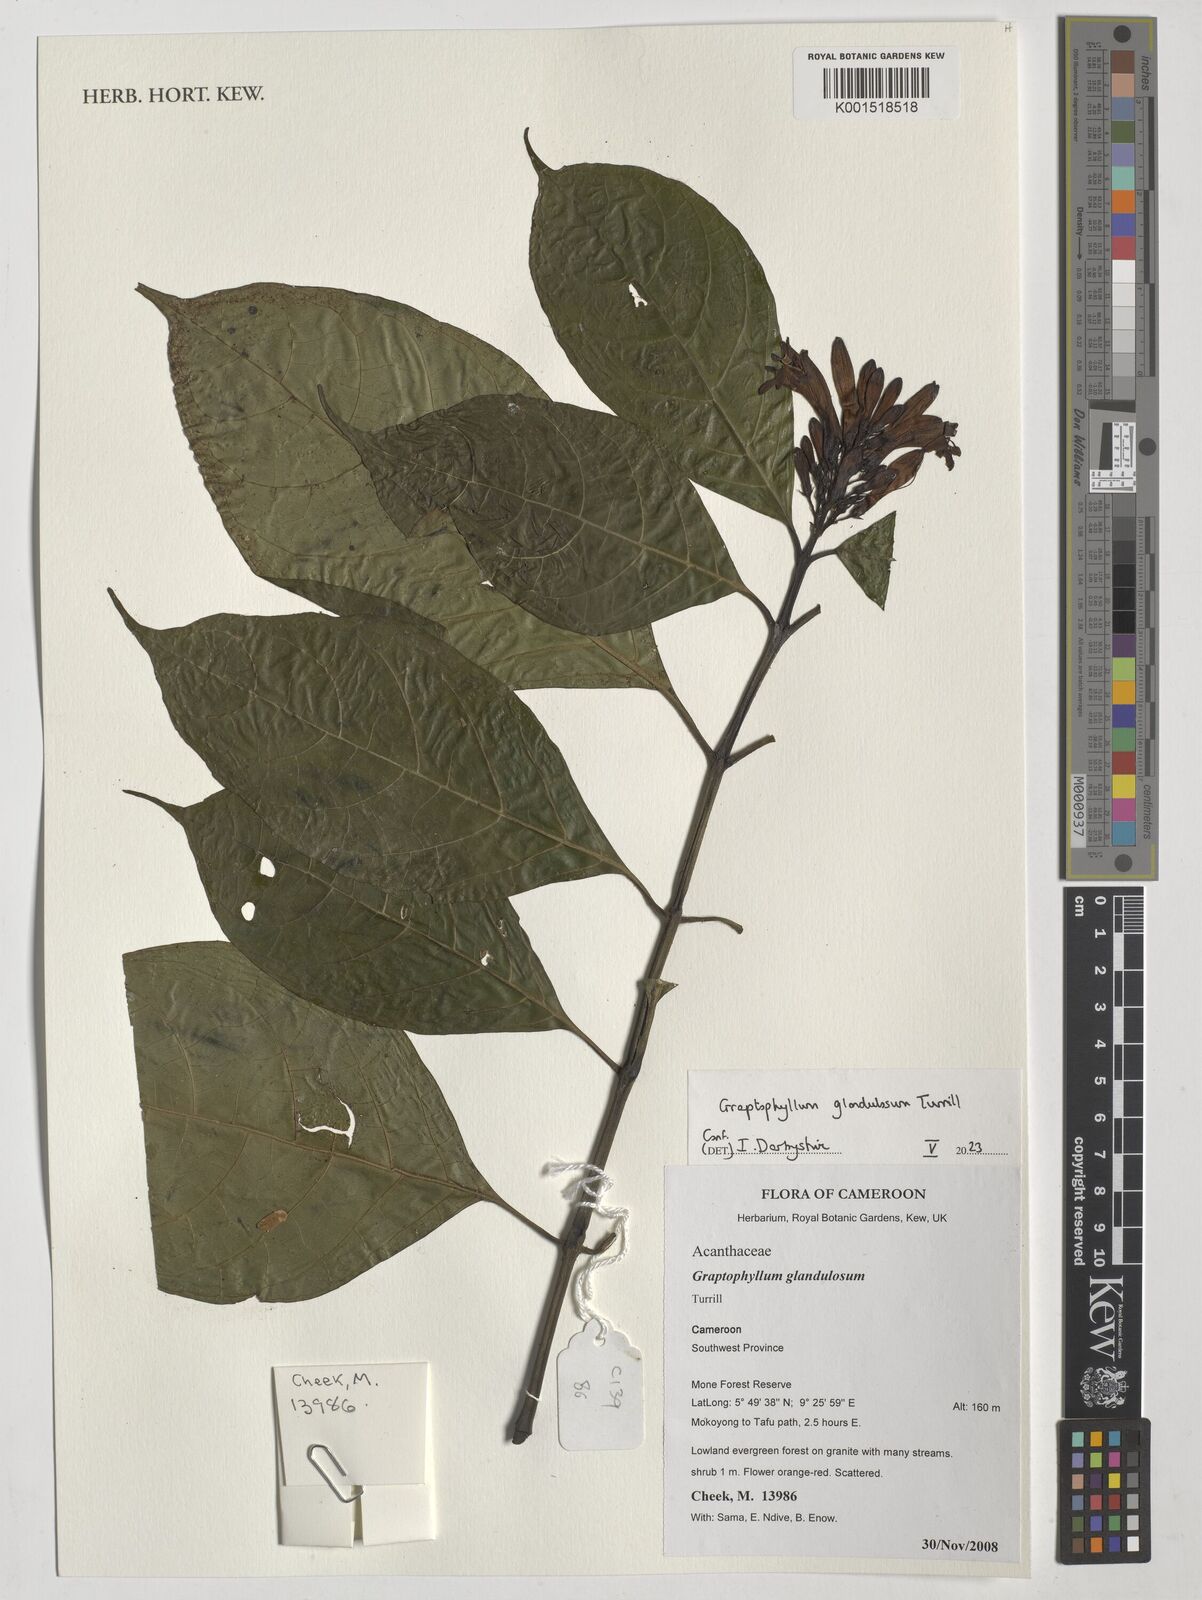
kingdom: Plantae
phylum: Tracheophyta
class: Magnoliopsida
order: Lamiales
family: Acanthaceae
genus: Graptophyllum
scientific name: Graptophyllum glandulosum
